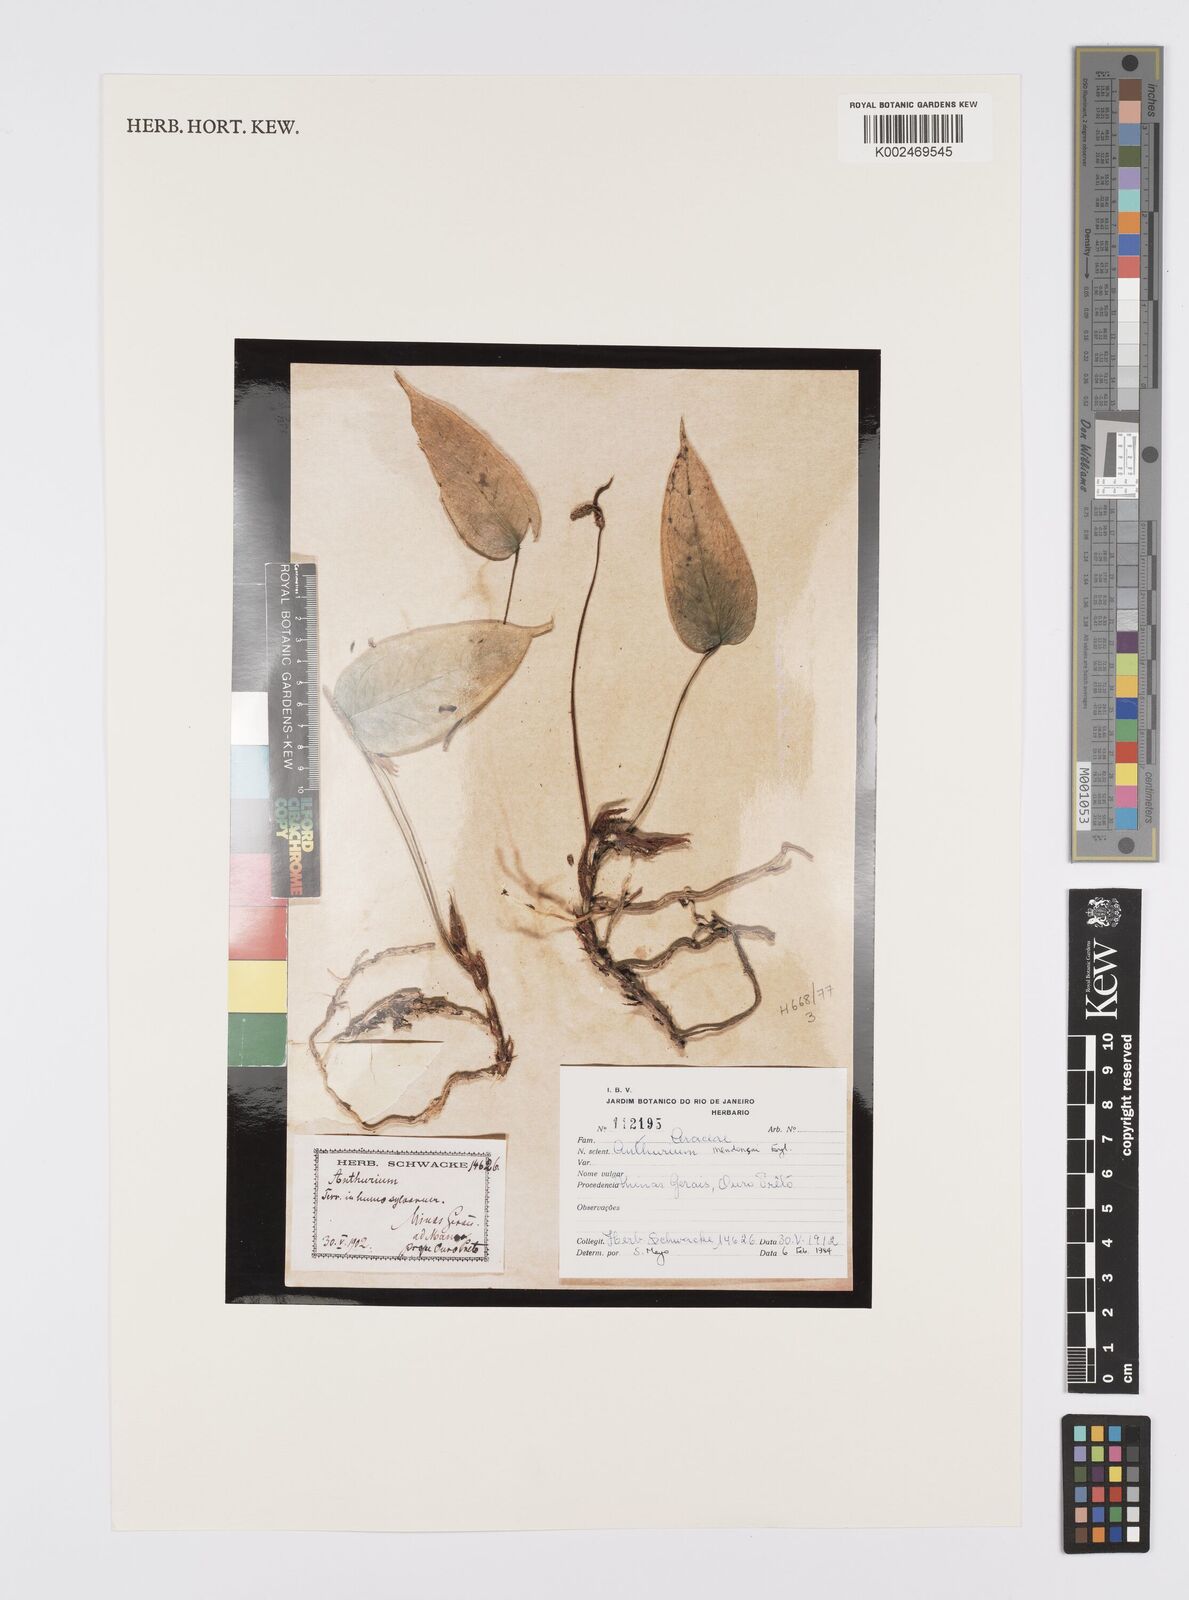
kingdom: Plantae
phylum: Tracheophyta
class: Liliopsida
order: Alismatales
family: Araceae
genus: Anthurium
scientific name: Anthurium parvum
